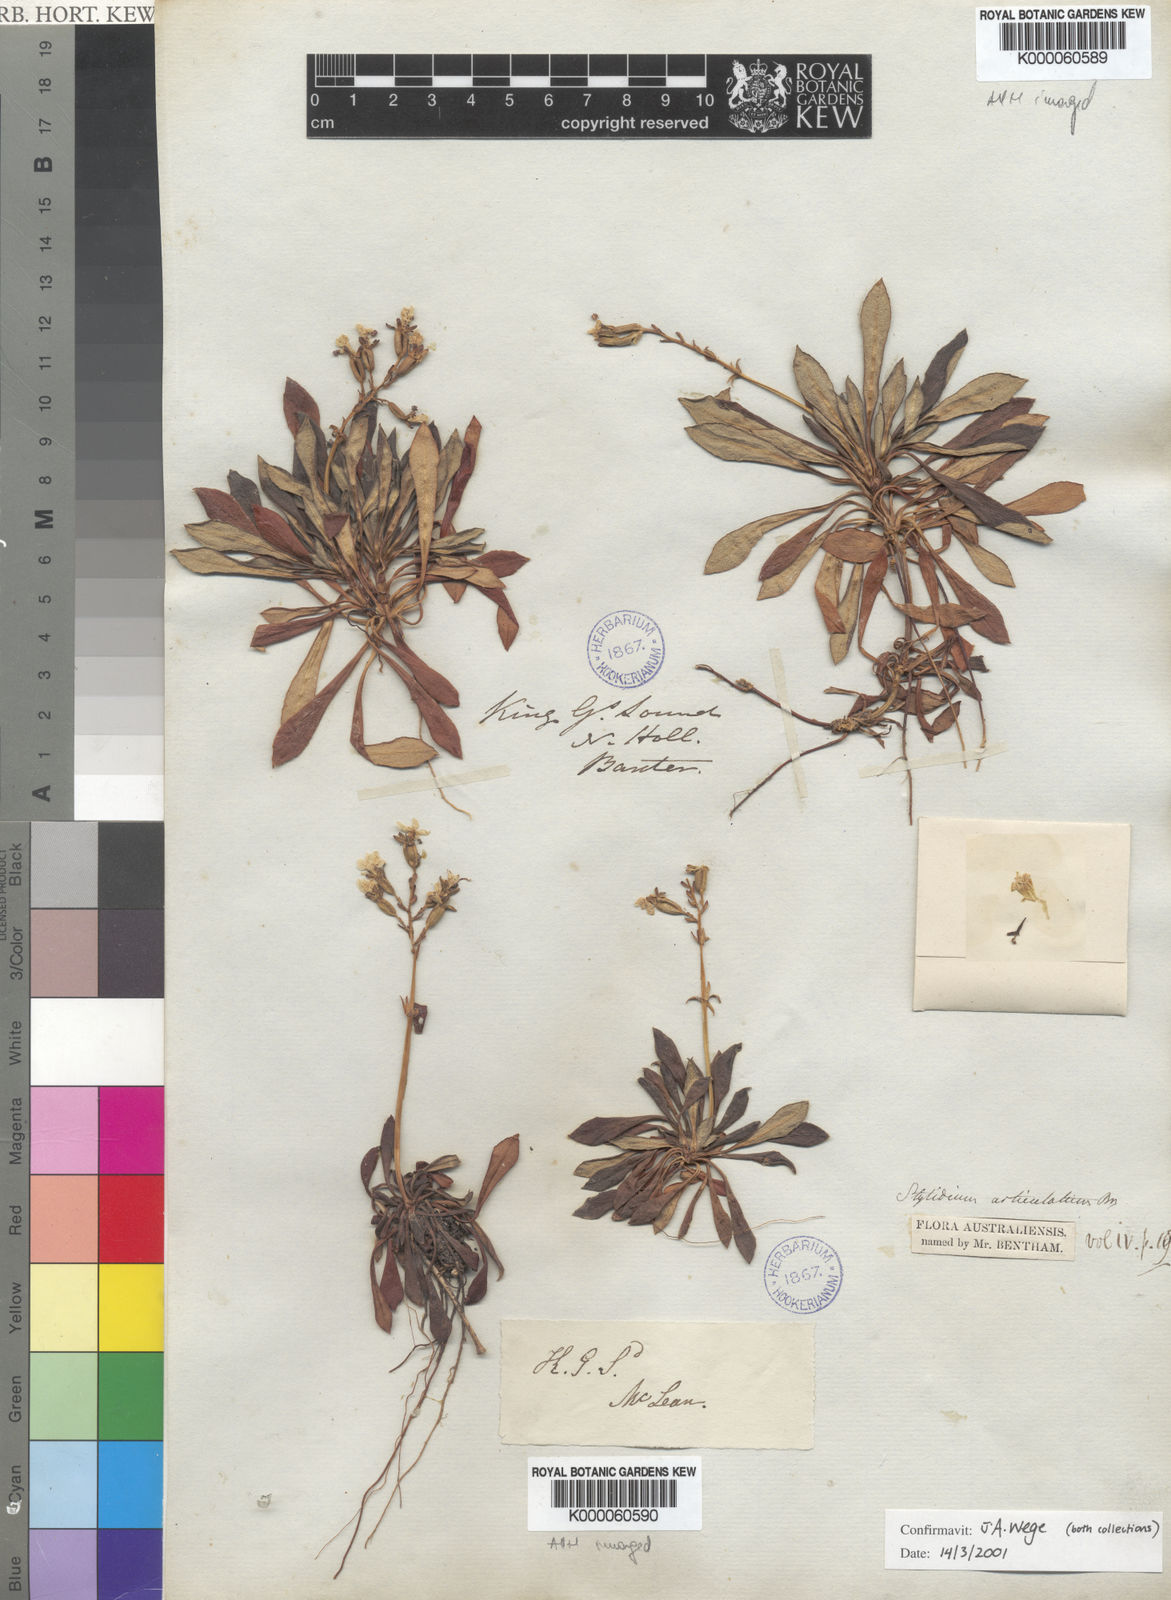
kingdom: Plantae
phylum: Tracheophyta
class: Magnoliopsida
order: Asterales
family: Stylidiaceae
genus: Stylidium
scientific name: Stylidium articulatum
